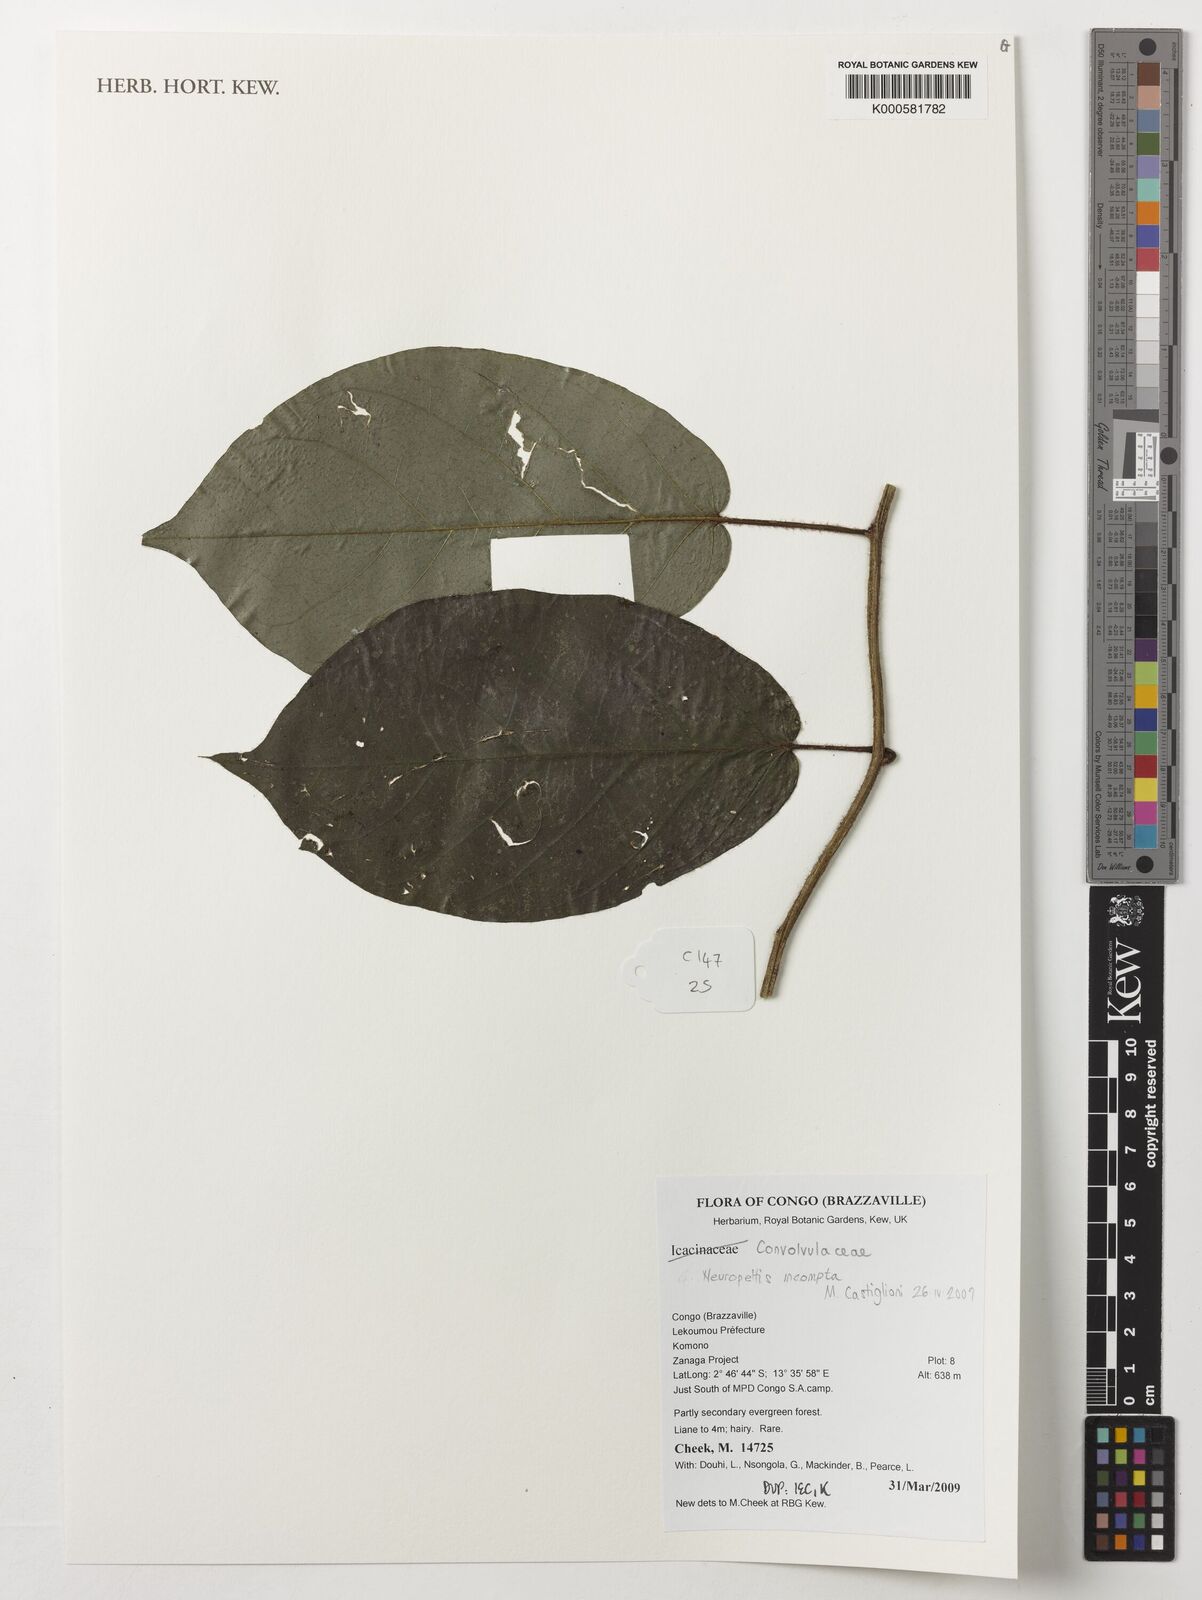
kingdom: Plantae
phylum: Tracheophyta
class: Magnoliopsida
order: Solanales
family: Convolvulaceae
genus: Neuropeltis
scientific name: Neuropeltis incompta
